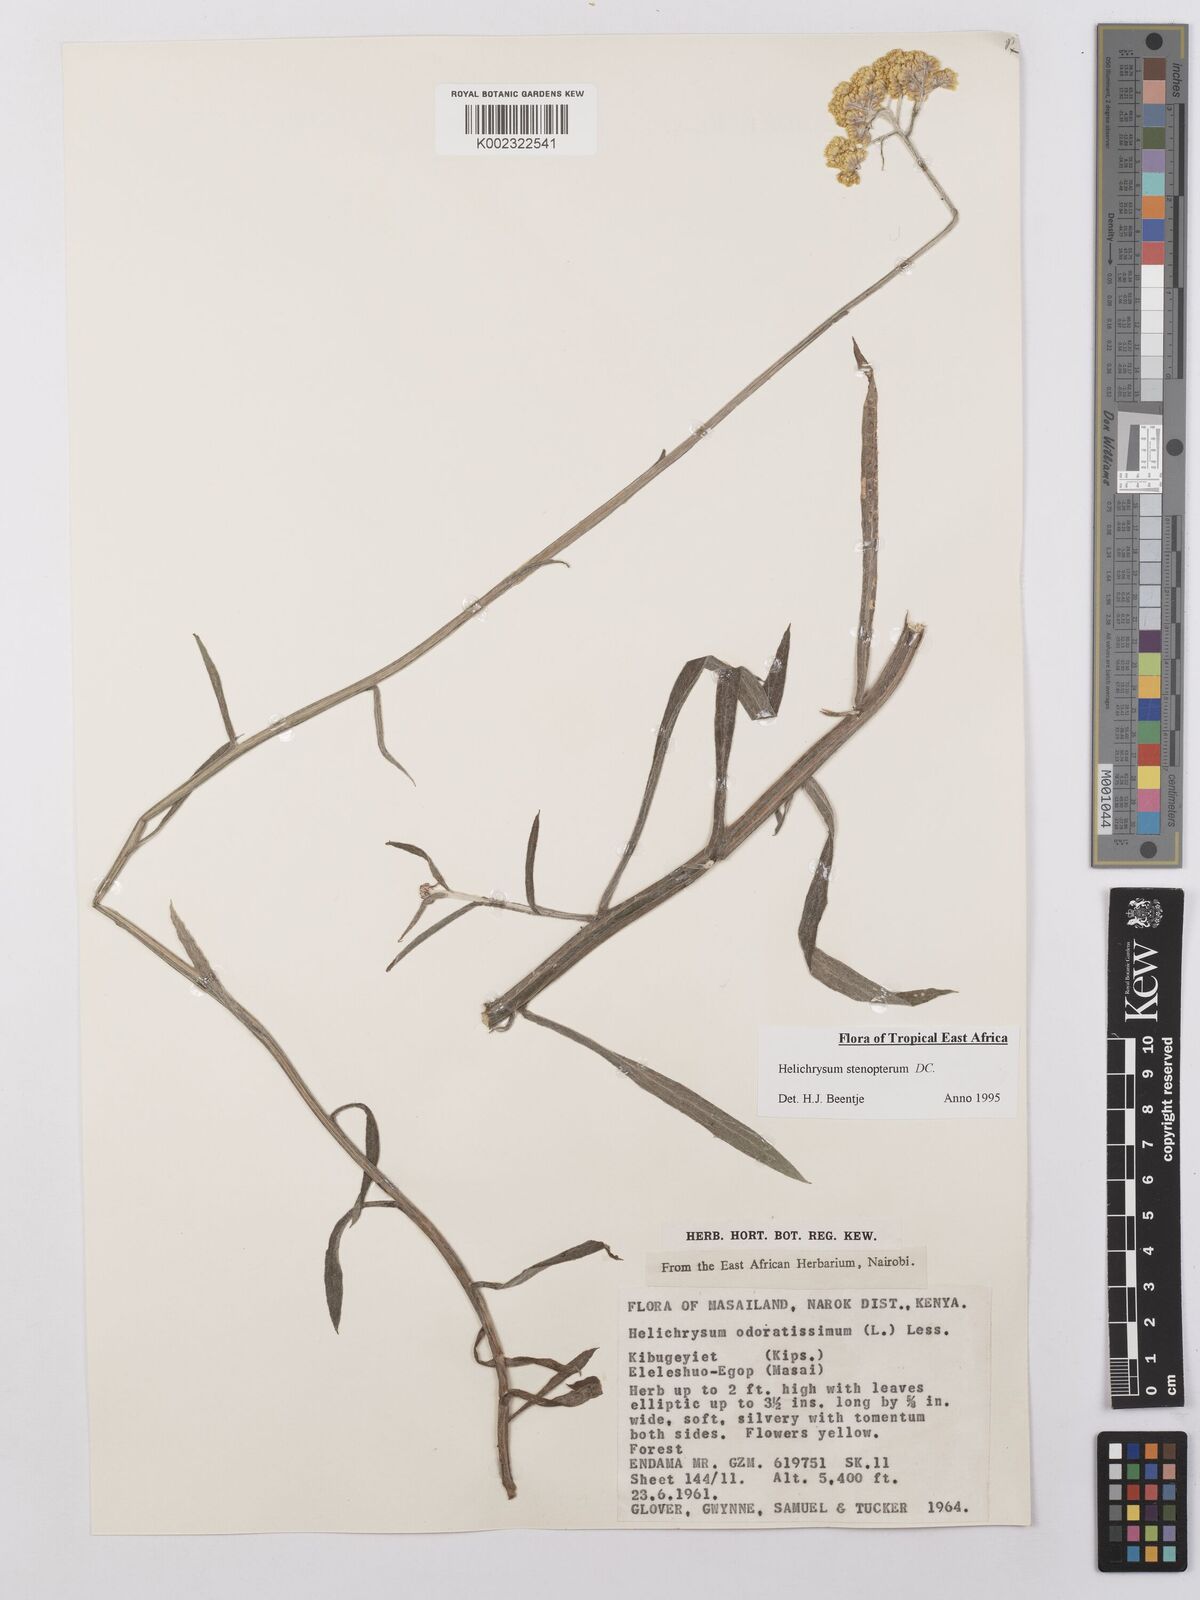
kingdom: Plantae
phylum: Tracheophyta
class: Magnoliopsida
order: Asterales
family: Asteraceae
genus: Helichrysum
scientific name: Helichrysum stenopterum
